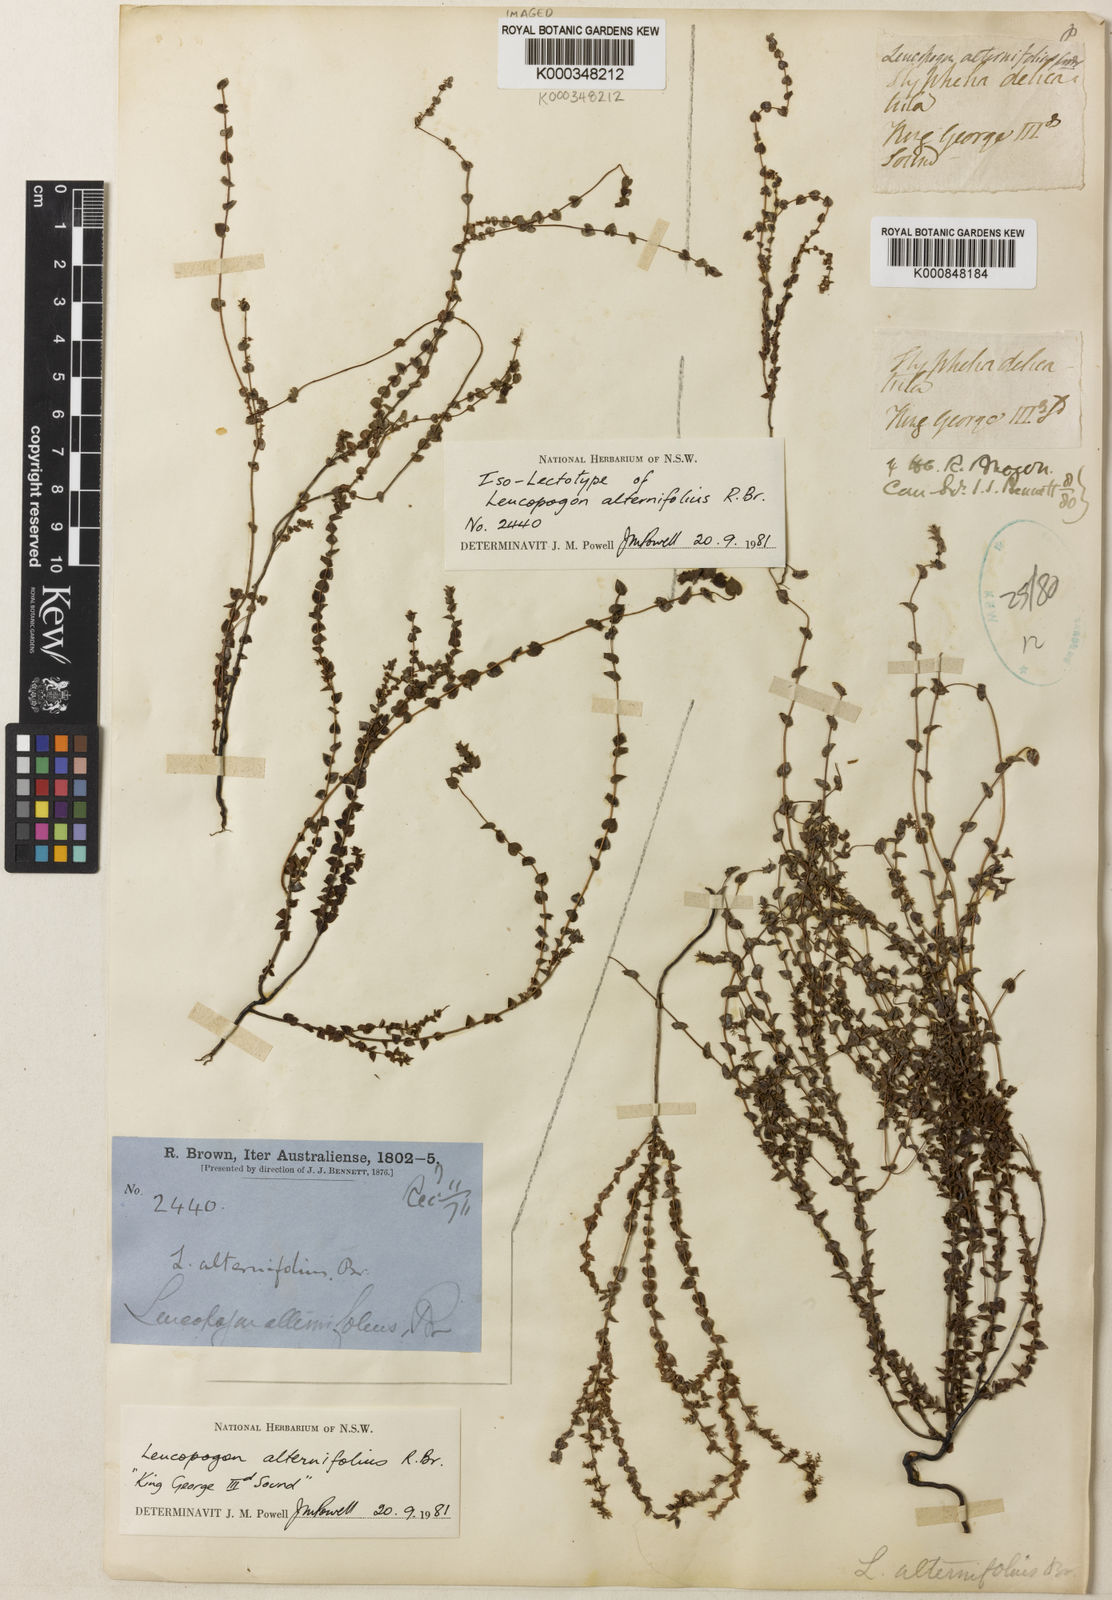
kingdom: Plantae
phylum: Tracheophyta
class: Magnoliopsida
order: Ericales
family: Ericaceae
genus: Leucopogon
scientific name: Leucopogon amplexicaulis
